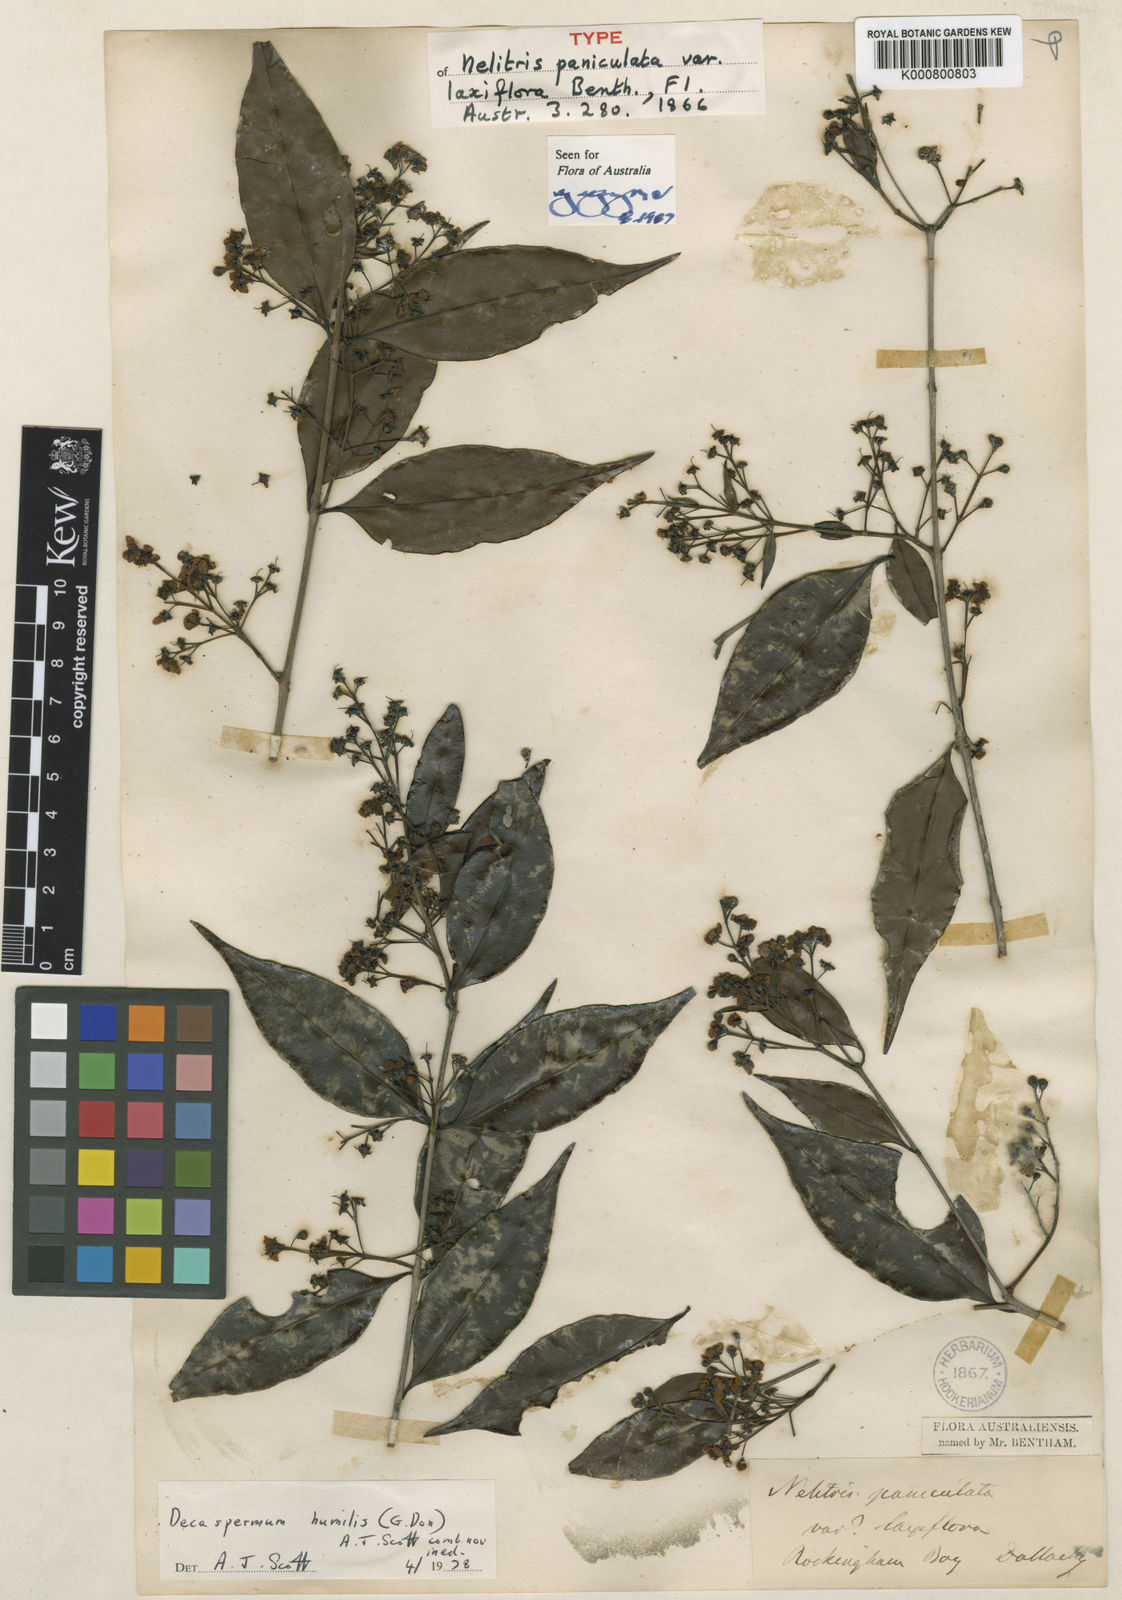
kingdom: Plantae
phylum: Tracheophyta
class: Magnoliopsida
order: Myrtales
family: Myrtaceae
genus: Decaspermum
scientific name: Decaspermum fruticosum
